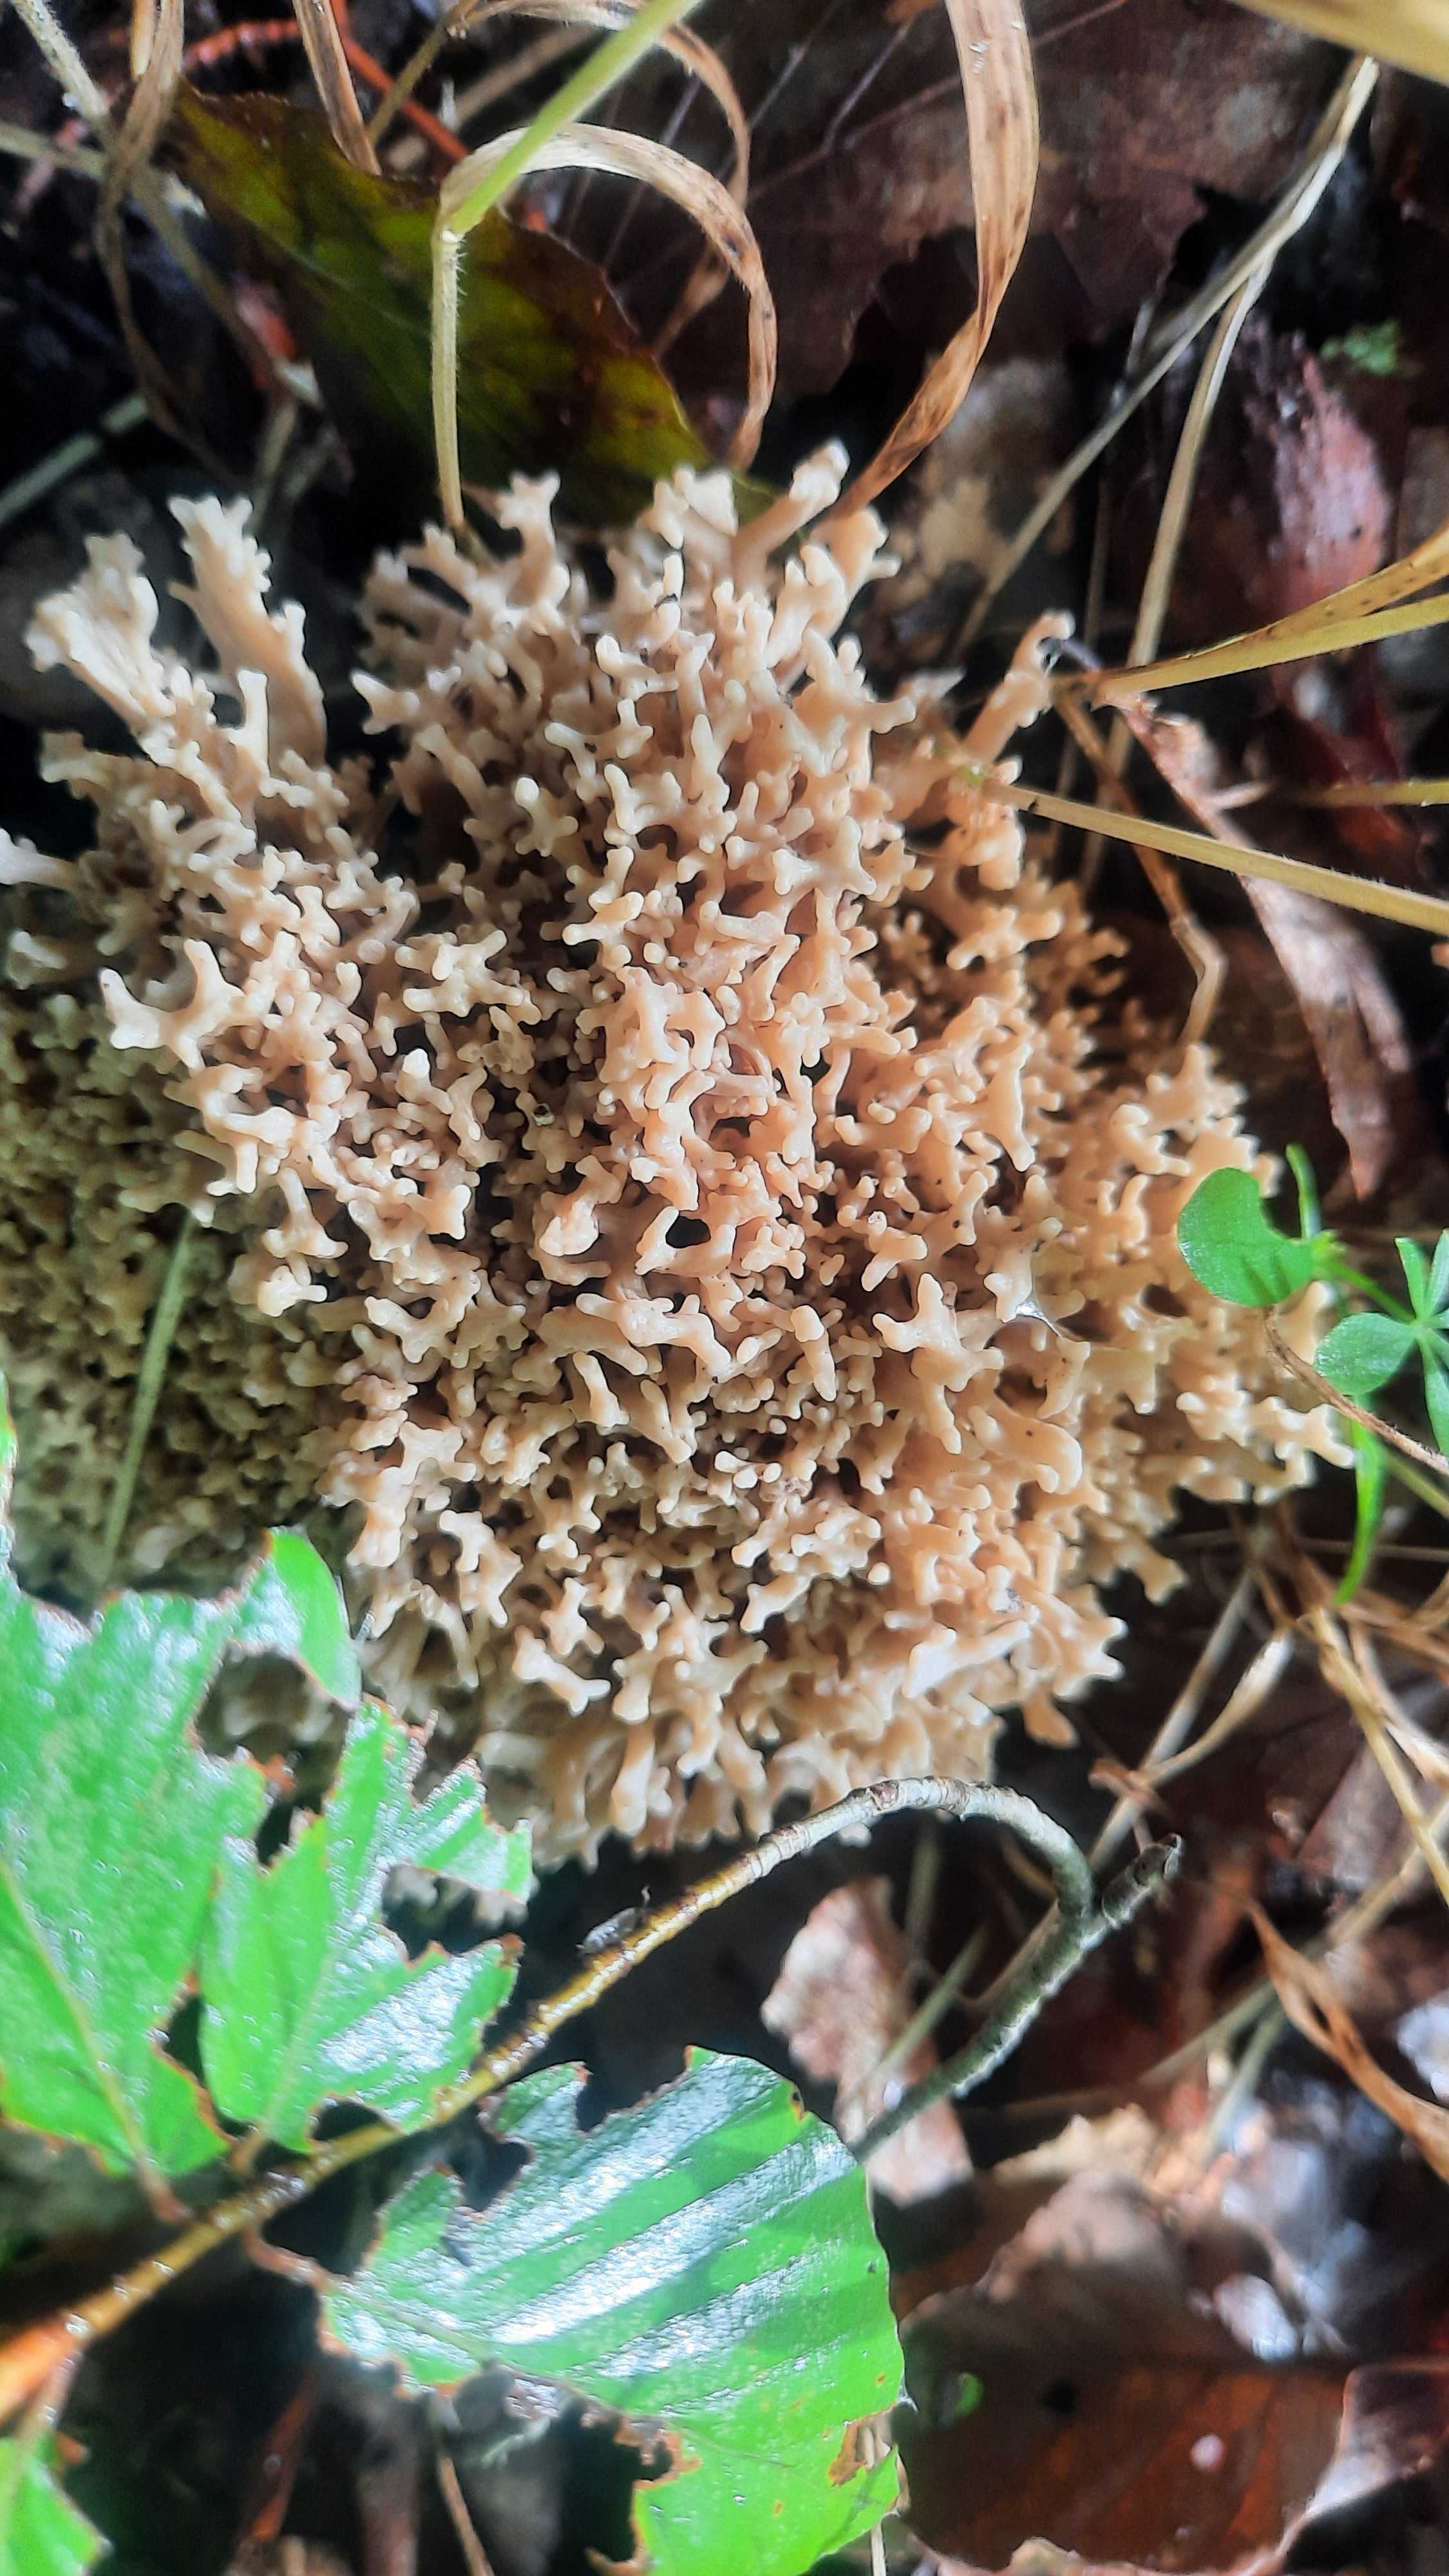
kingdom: Fungi
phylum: Basidiomycota
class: Agaricomycetes
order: Gomphales
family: Gomphaceae
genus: Ramaria
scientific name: Ramaria stricta
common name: rank koralsvamp
